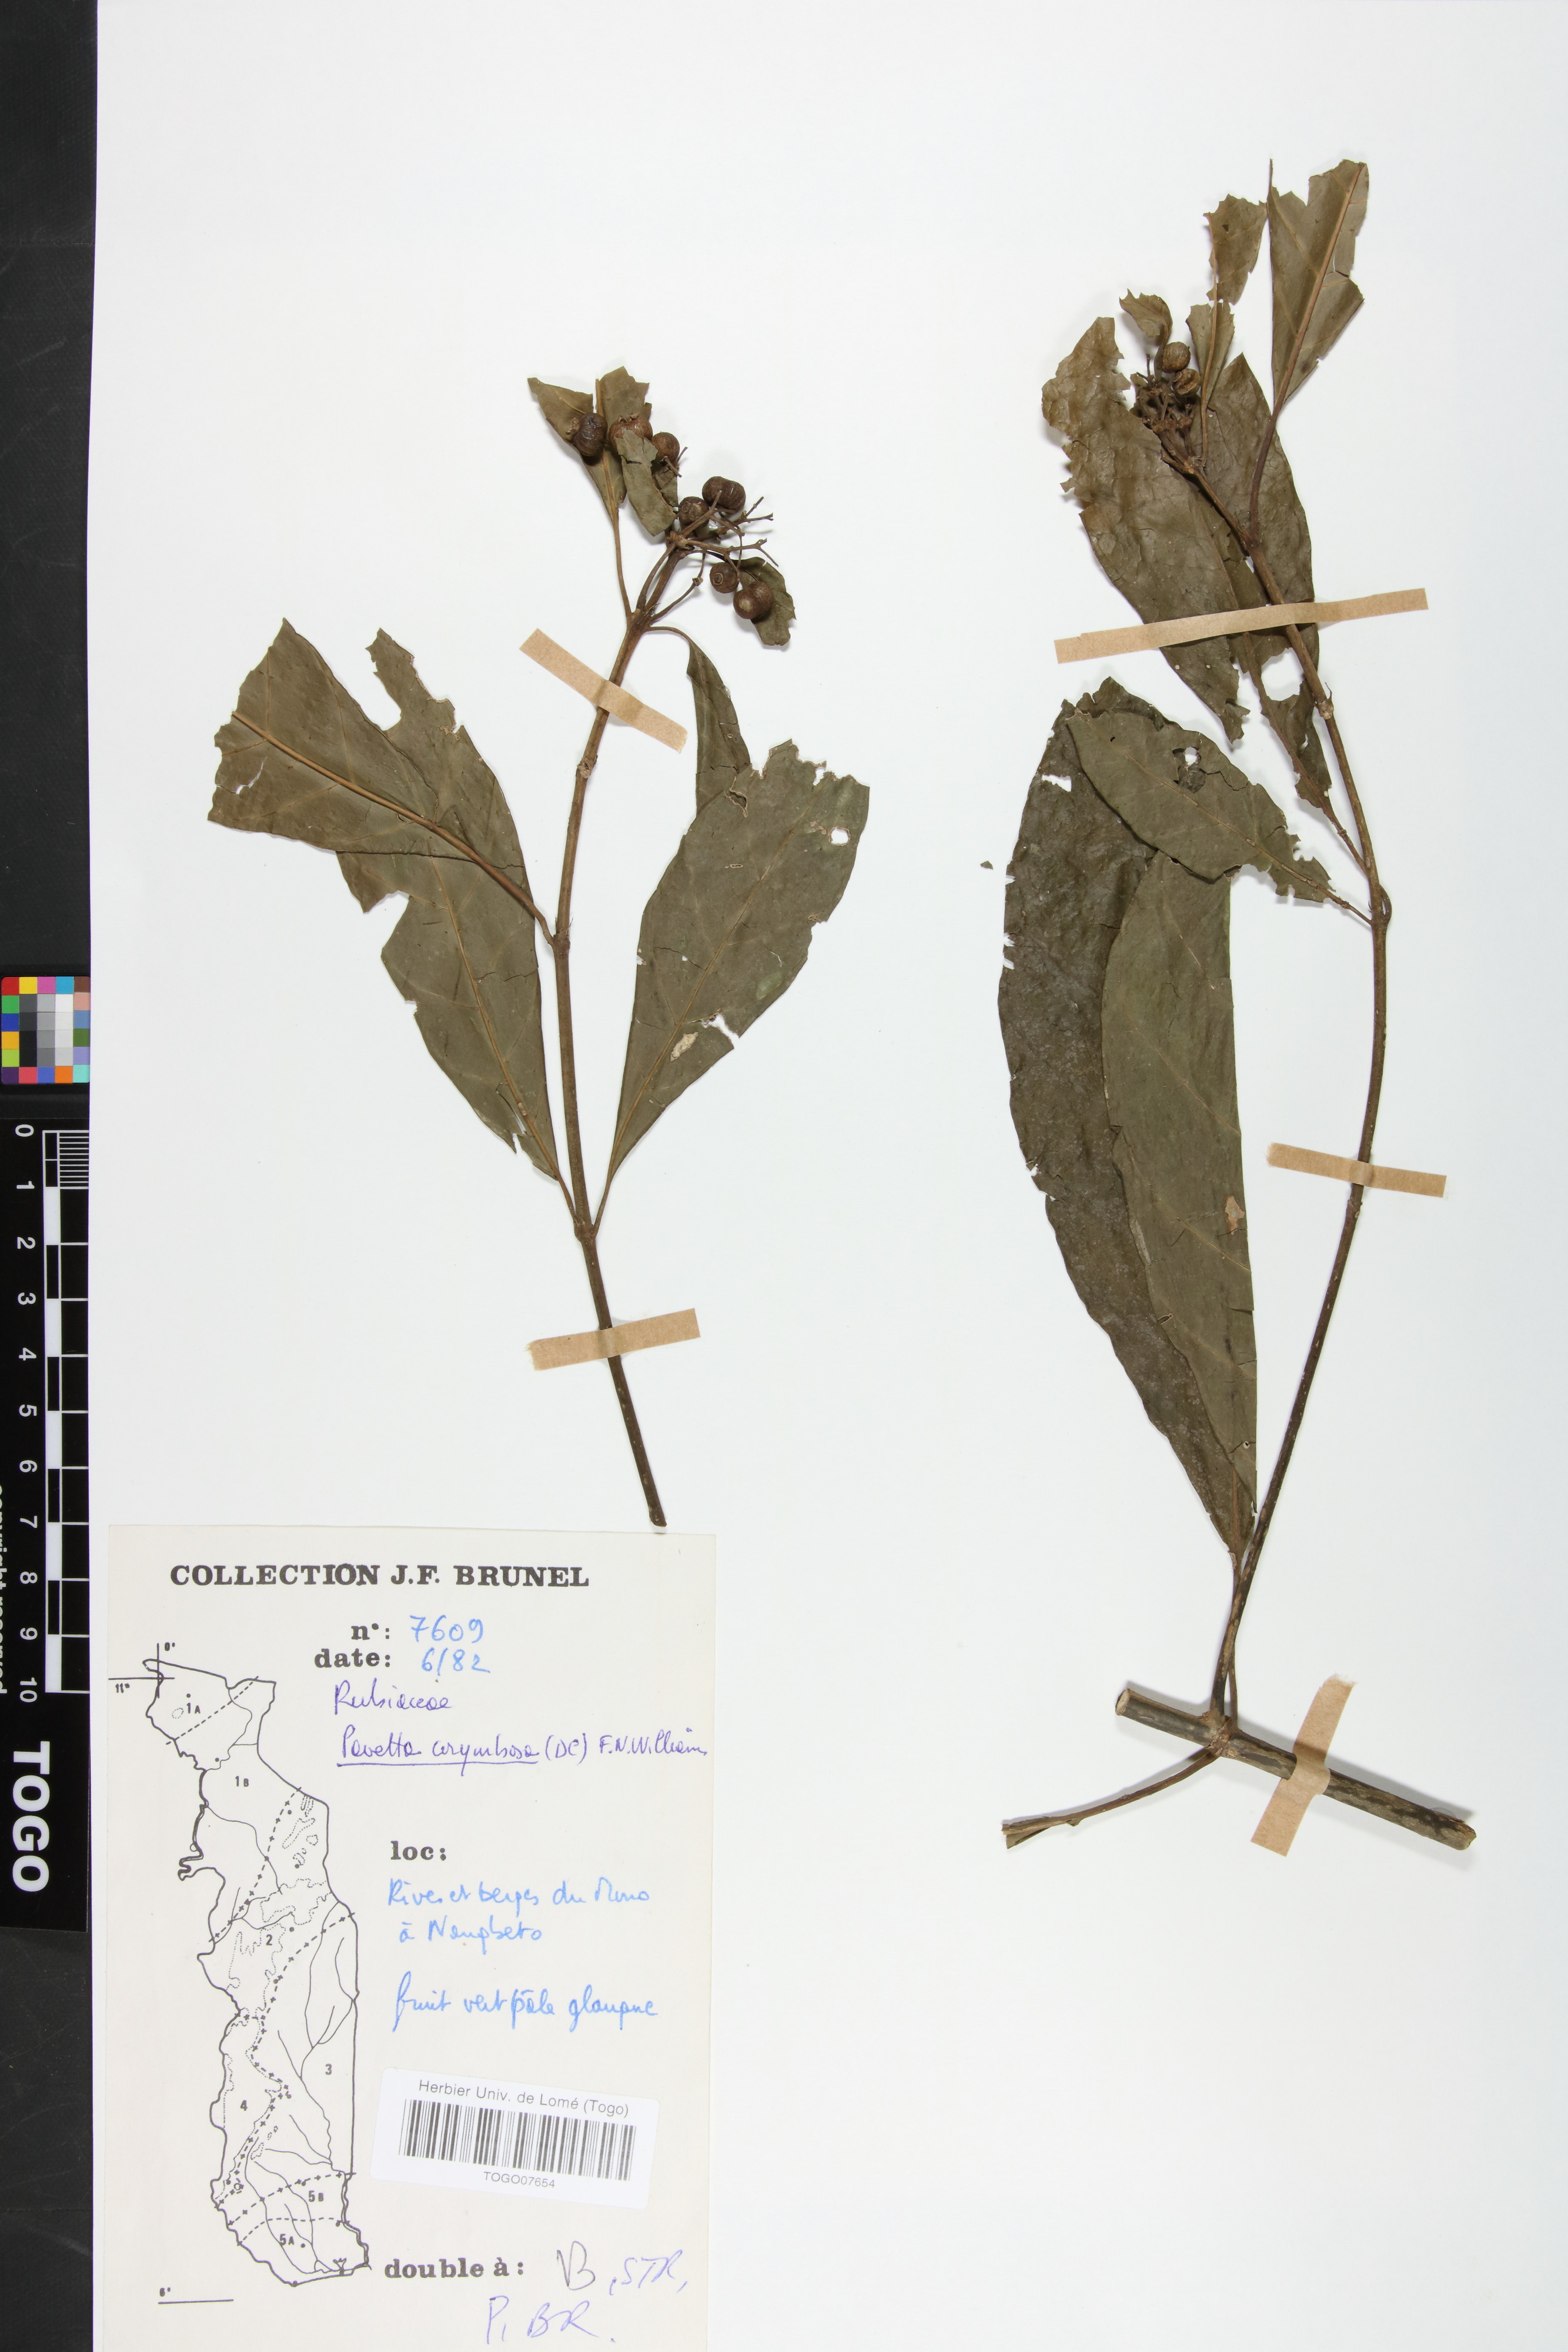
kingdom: Plantae
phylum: Tracheophyta
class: Magnoliopsida
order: Gentianales
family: Rubiaceae
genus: Pavetta
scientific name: Pavetta corymbosa
